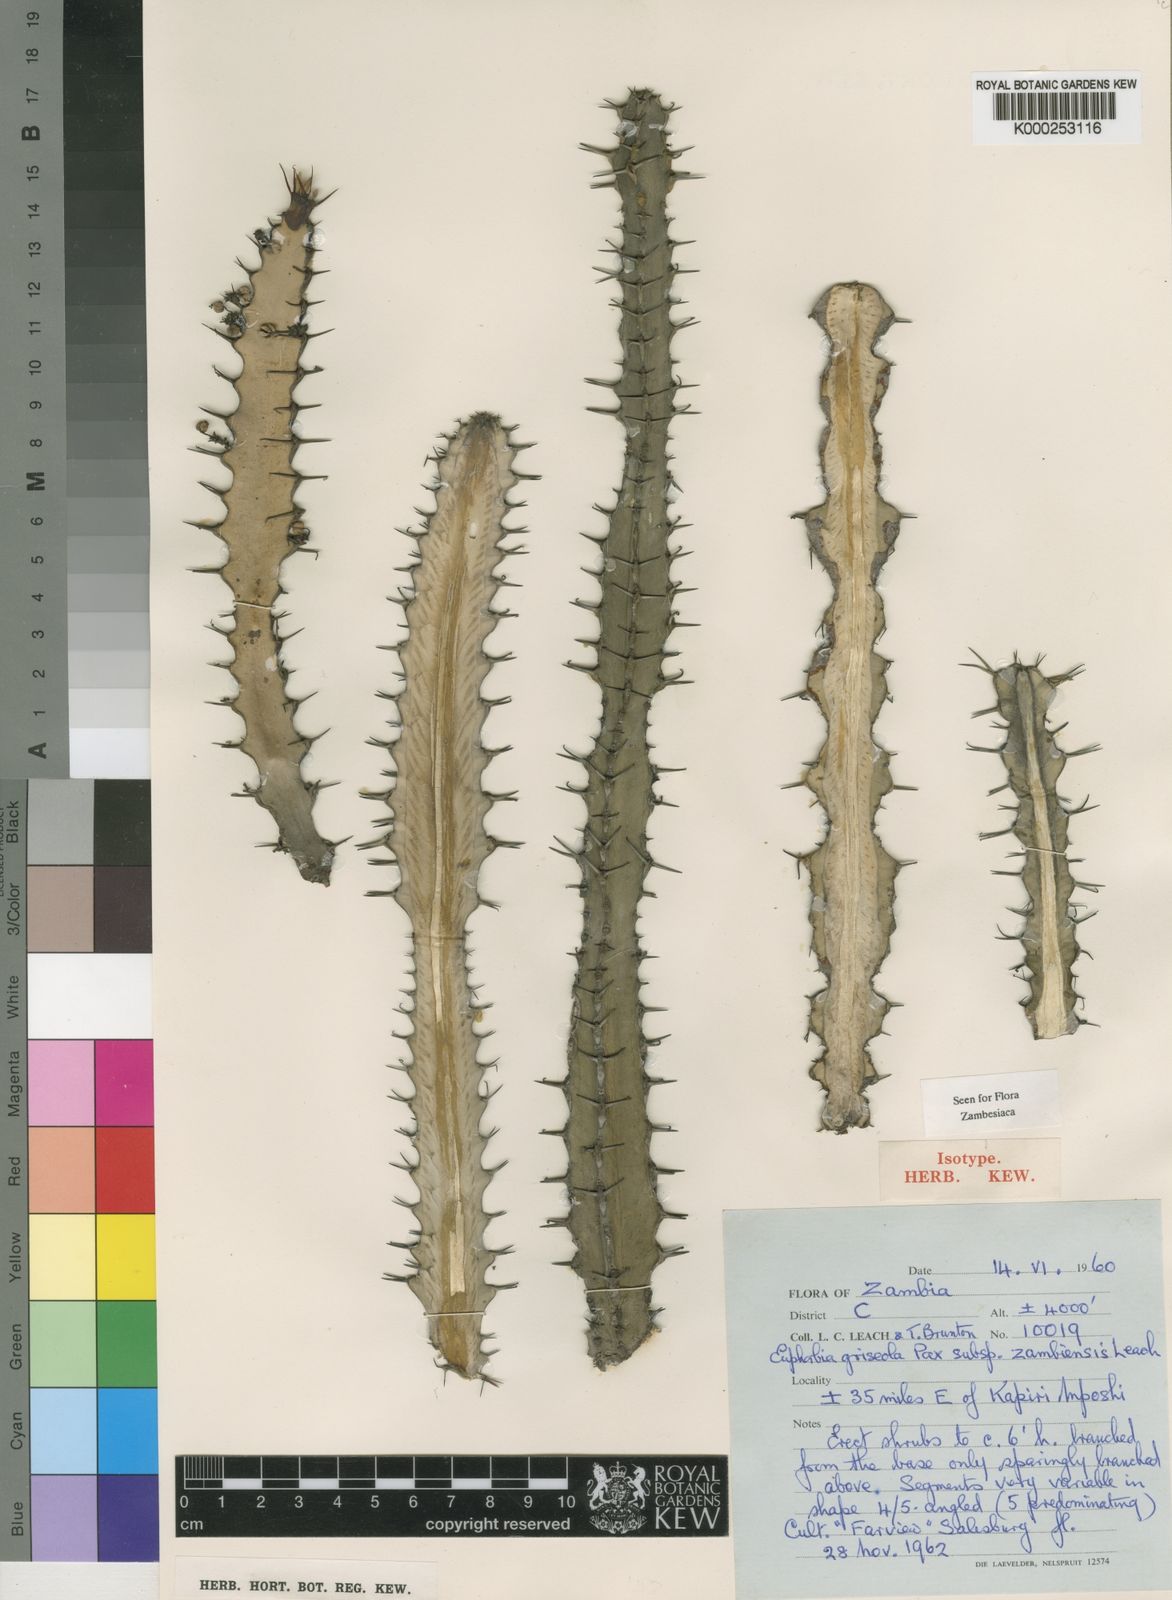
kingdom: Plantae
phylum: Tracheophyta
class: Magnoliopsida
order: Malpighiales
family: Euphorbiaceae
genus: Euphorbia
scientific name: Euphorbia griseola
